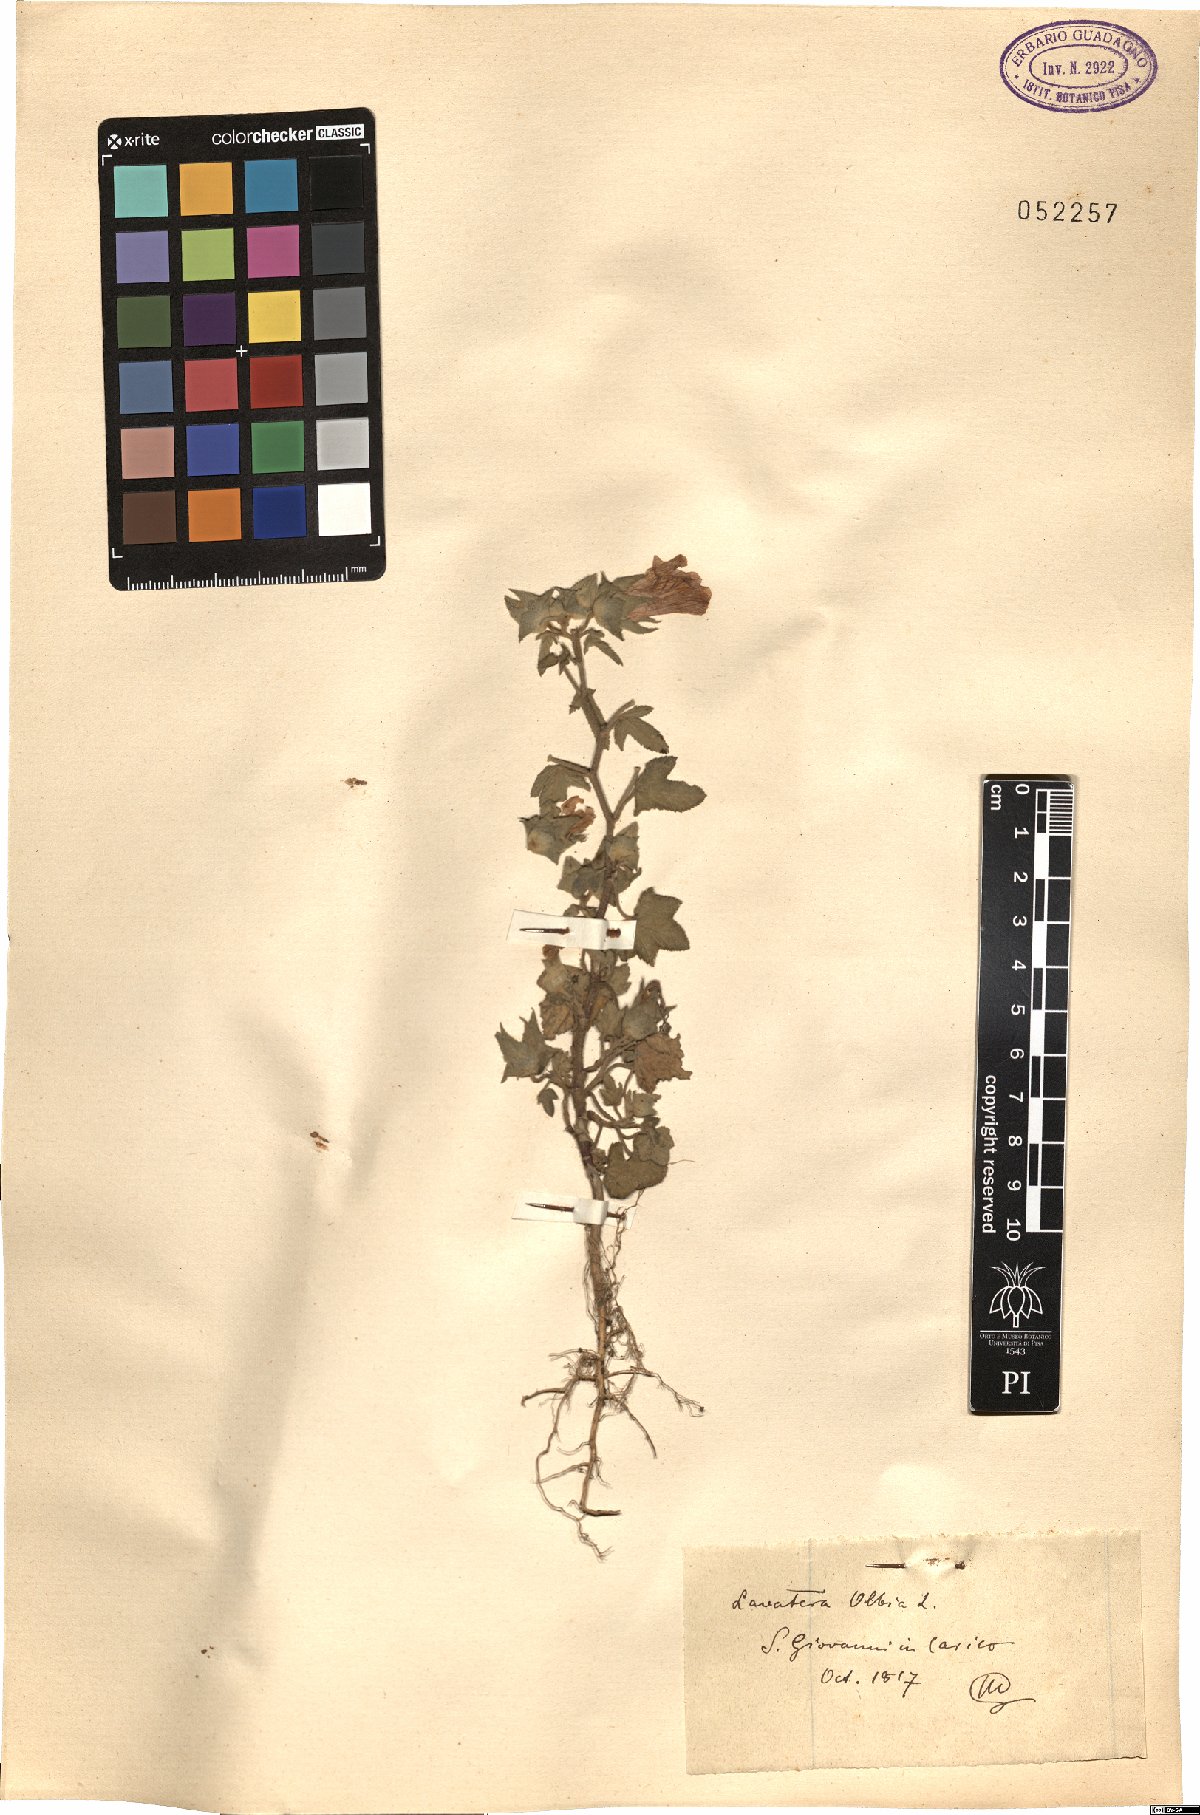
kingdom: Plantae
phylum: Tracheophyta
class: Magnoliopsida
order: Malvales
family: Malvaceae
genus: Malva
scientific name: Malva olbia
